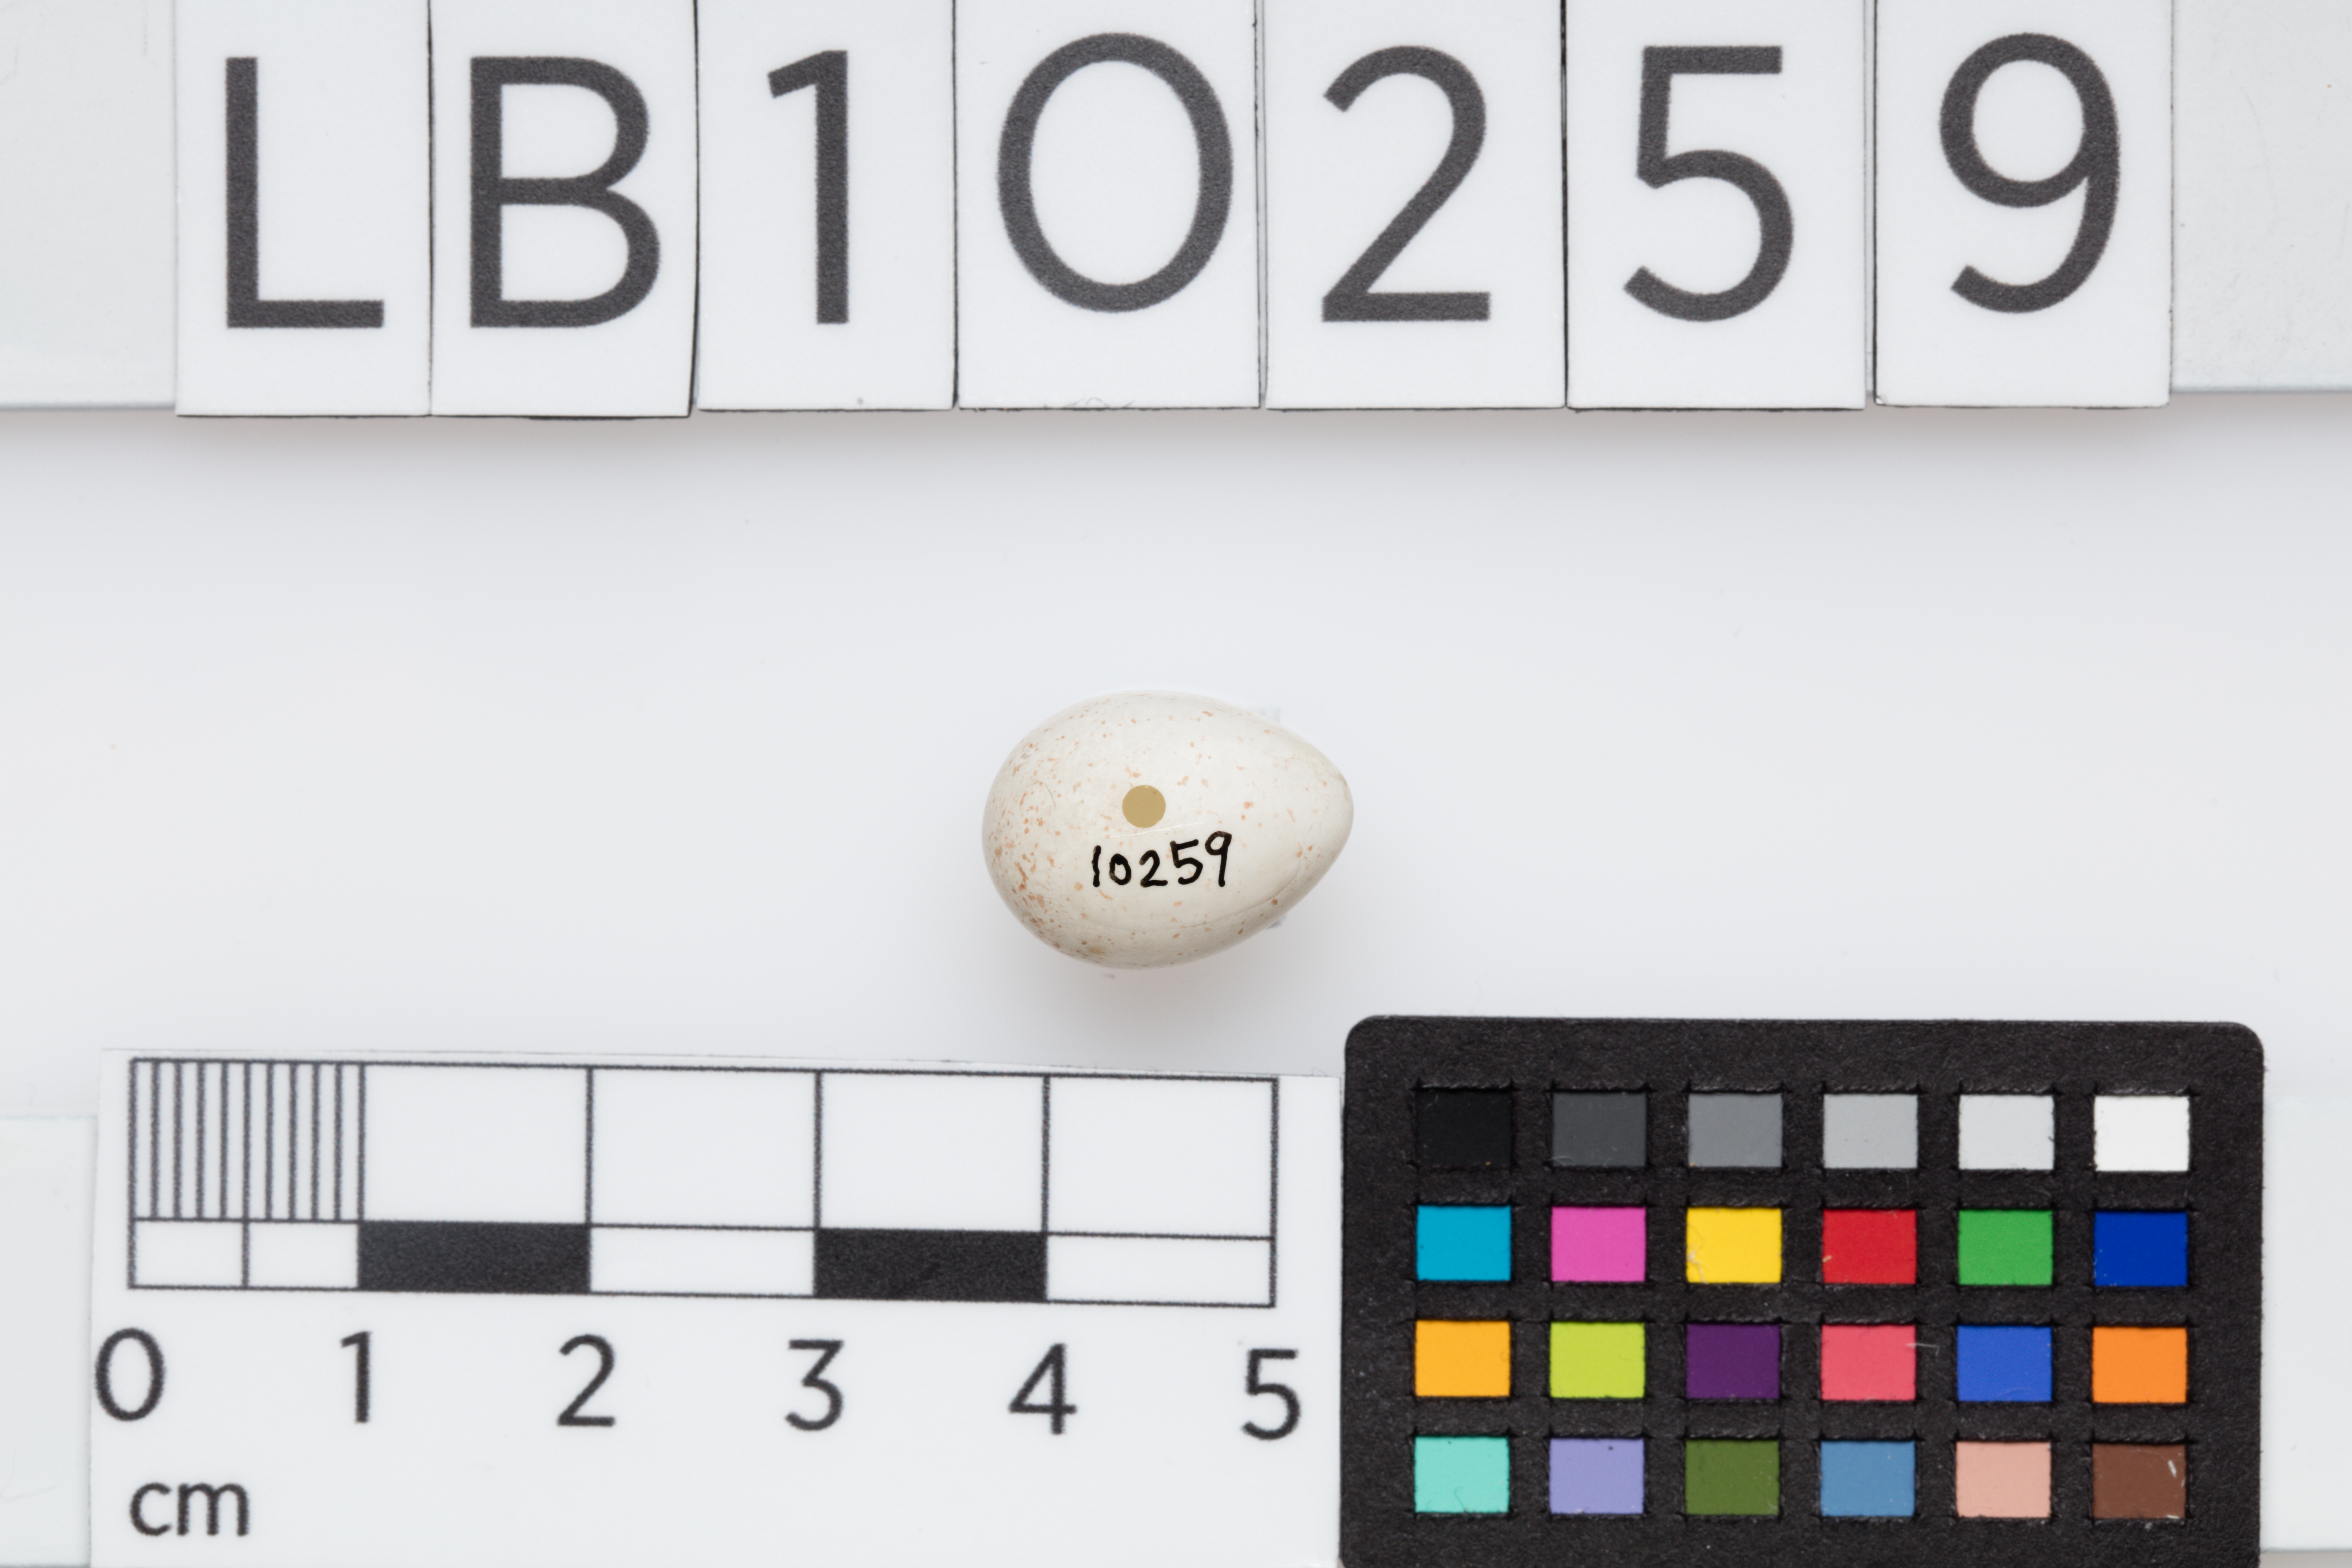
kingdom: Animalia
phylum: Chordata
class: Aves
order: Passeriformes
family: Paridae
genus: Cyanistes
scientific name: Cyanistes caeruleus
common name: Eurasian blue tit
